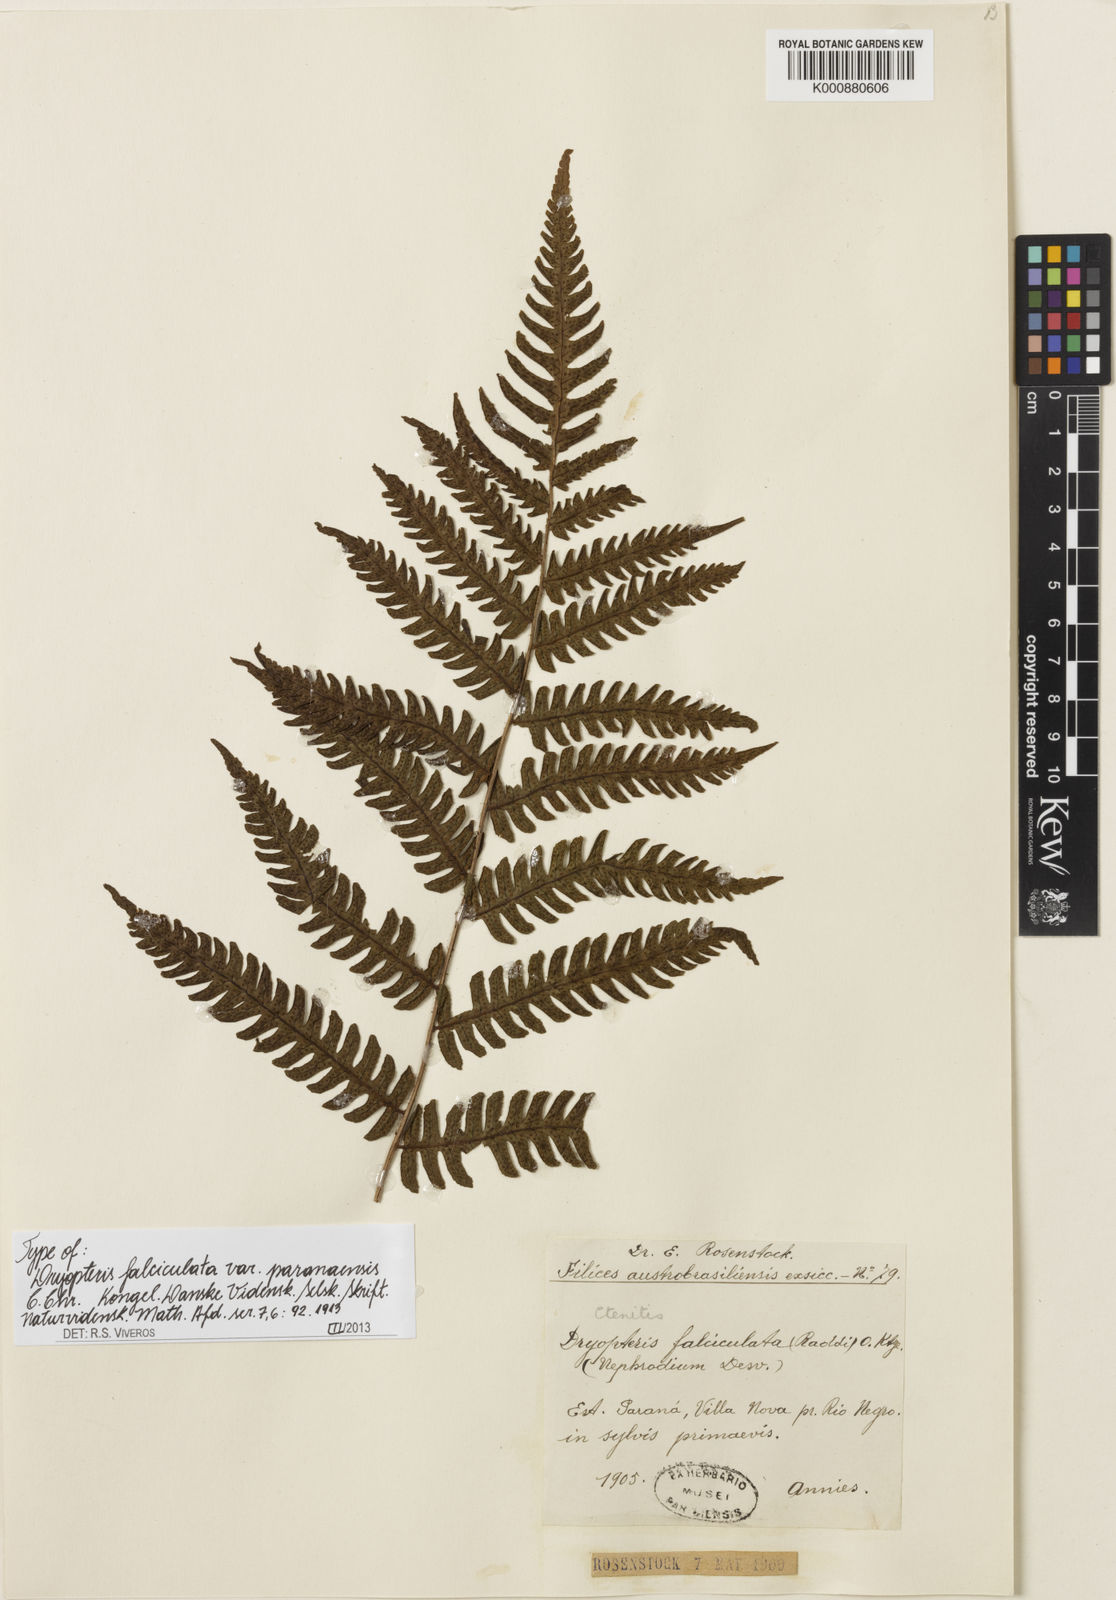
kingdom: Plantae
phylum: Tracheophyta
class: Polypodiopsida
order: Polypodiales
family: Dryopteridaceae
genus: Ctenitis
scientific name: Ctenitis paranaensis
